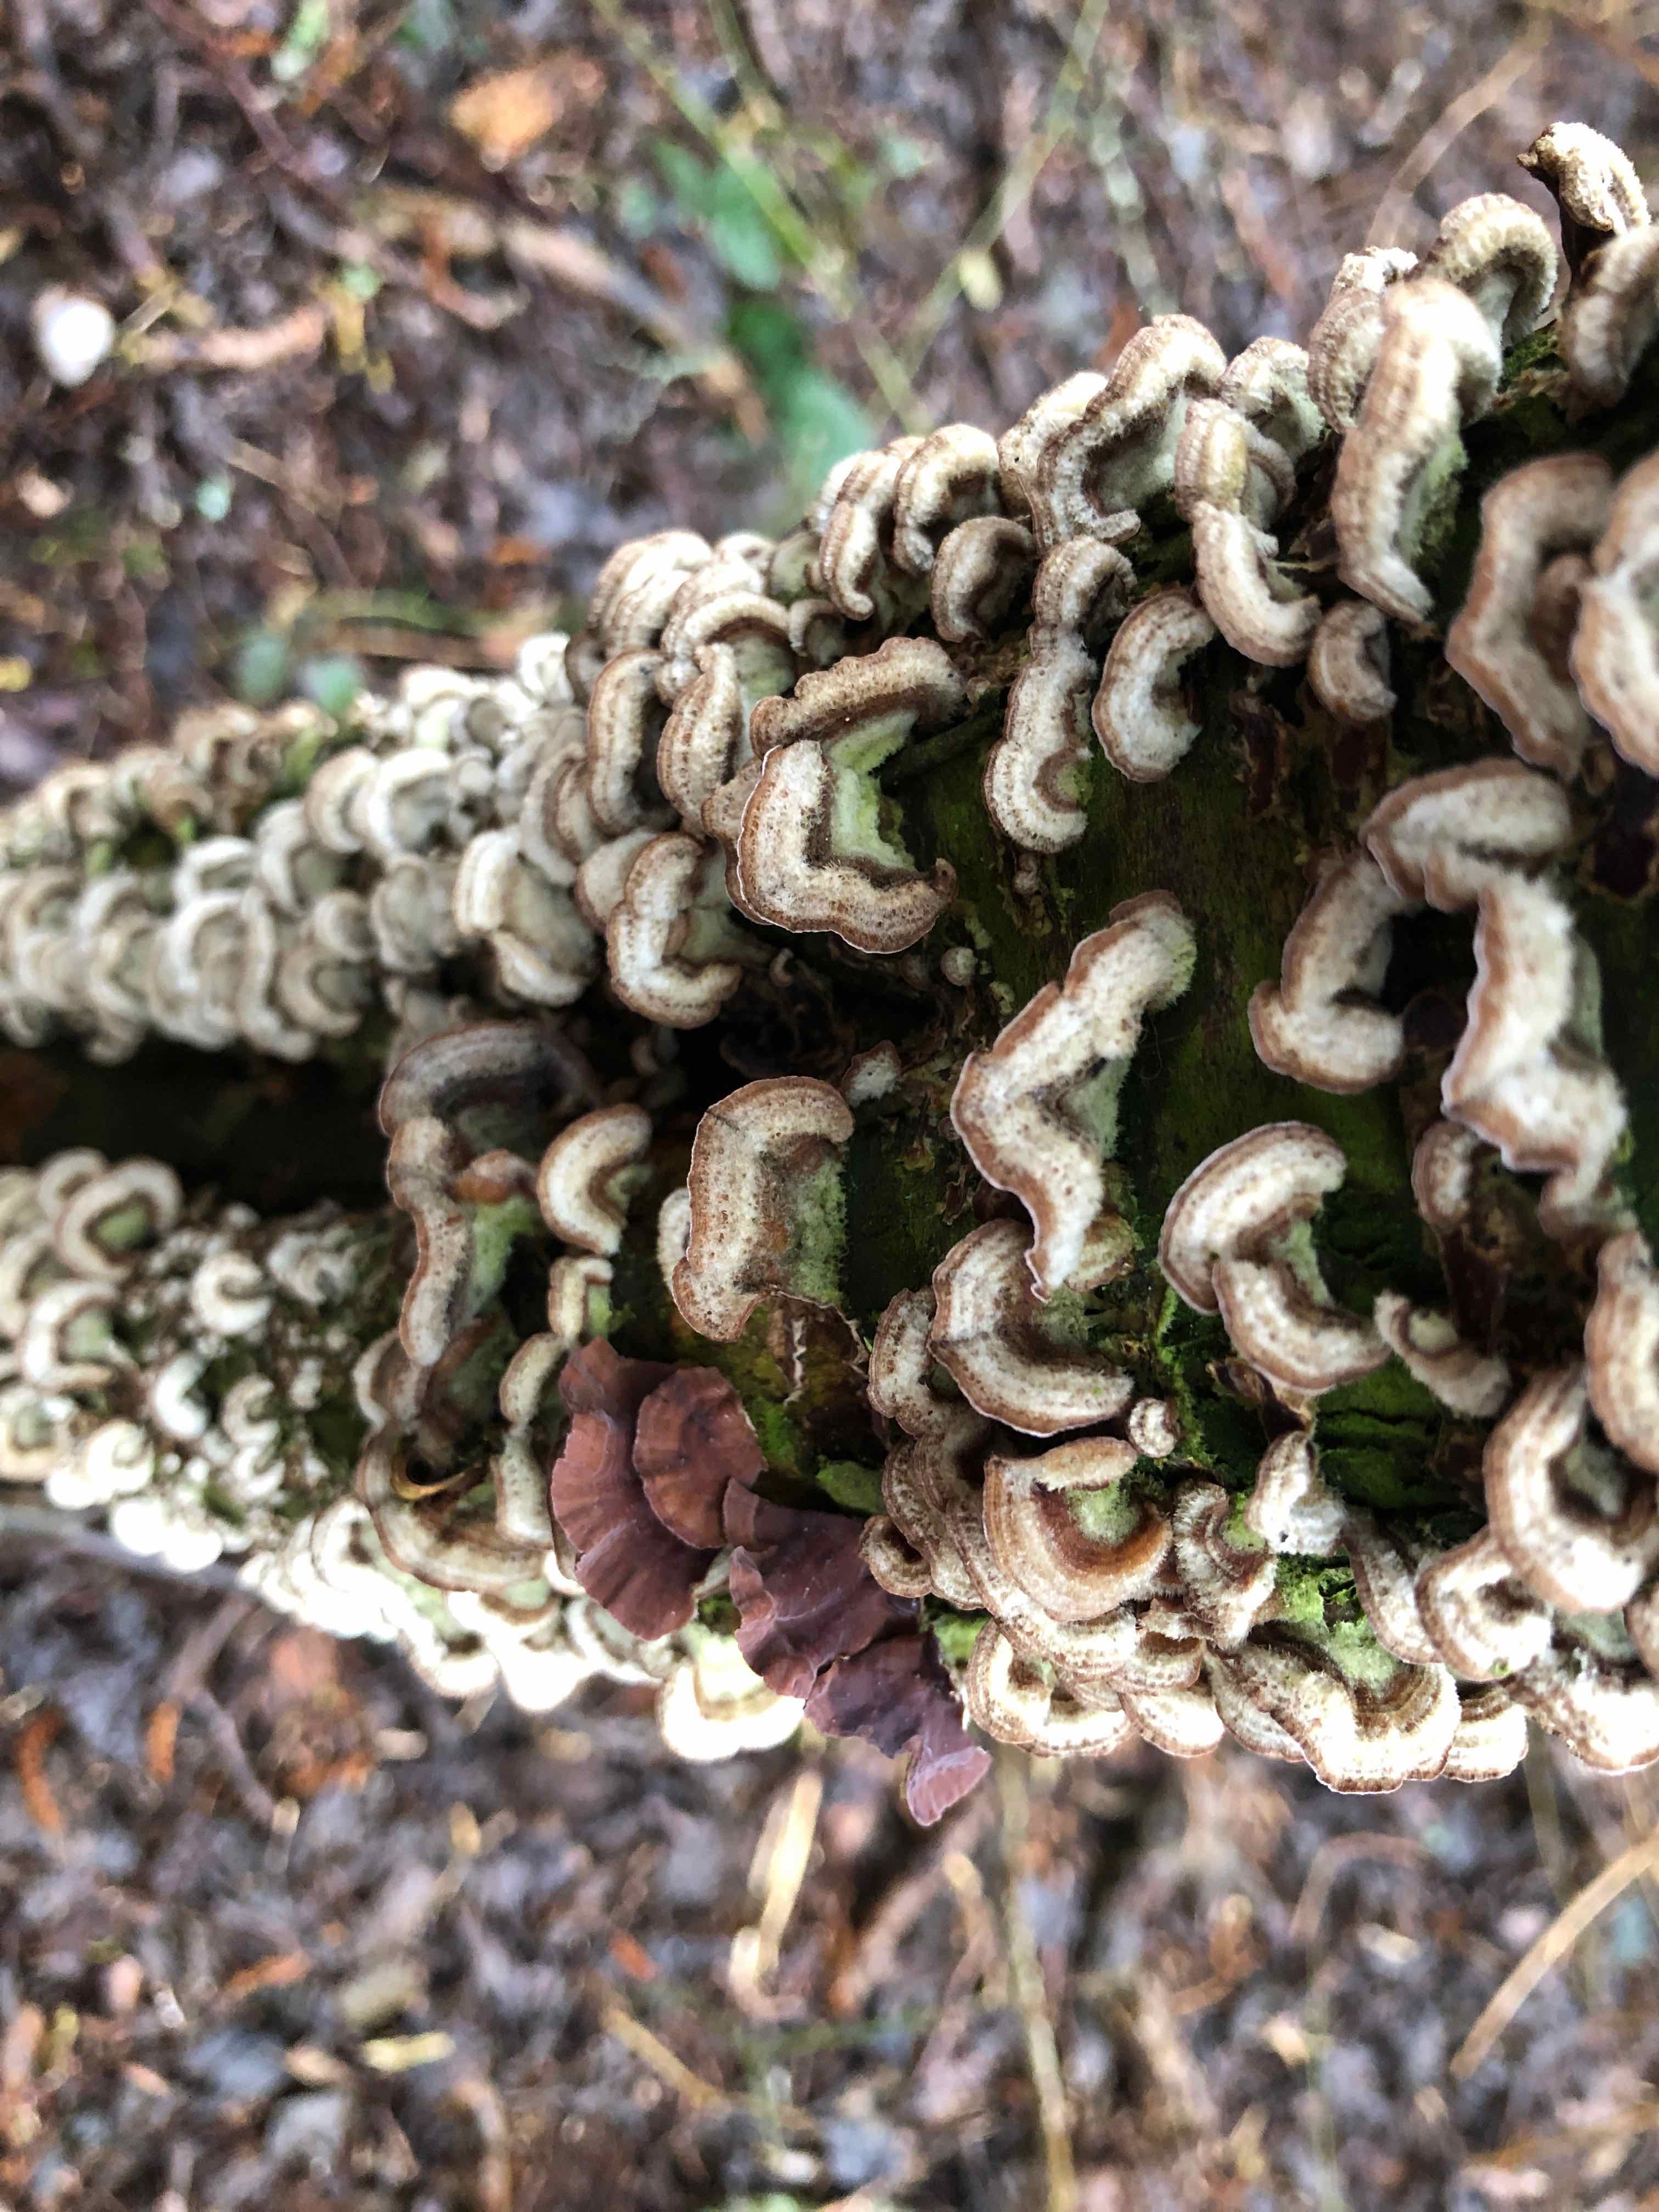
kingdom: Fungi
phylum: Basidiomycota
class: Agaricomycetes
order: Agaricales
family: Cyphellaceae
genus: Chondrostereum
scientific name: Chondrostereum purpureum
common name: purpurlædersvamp
